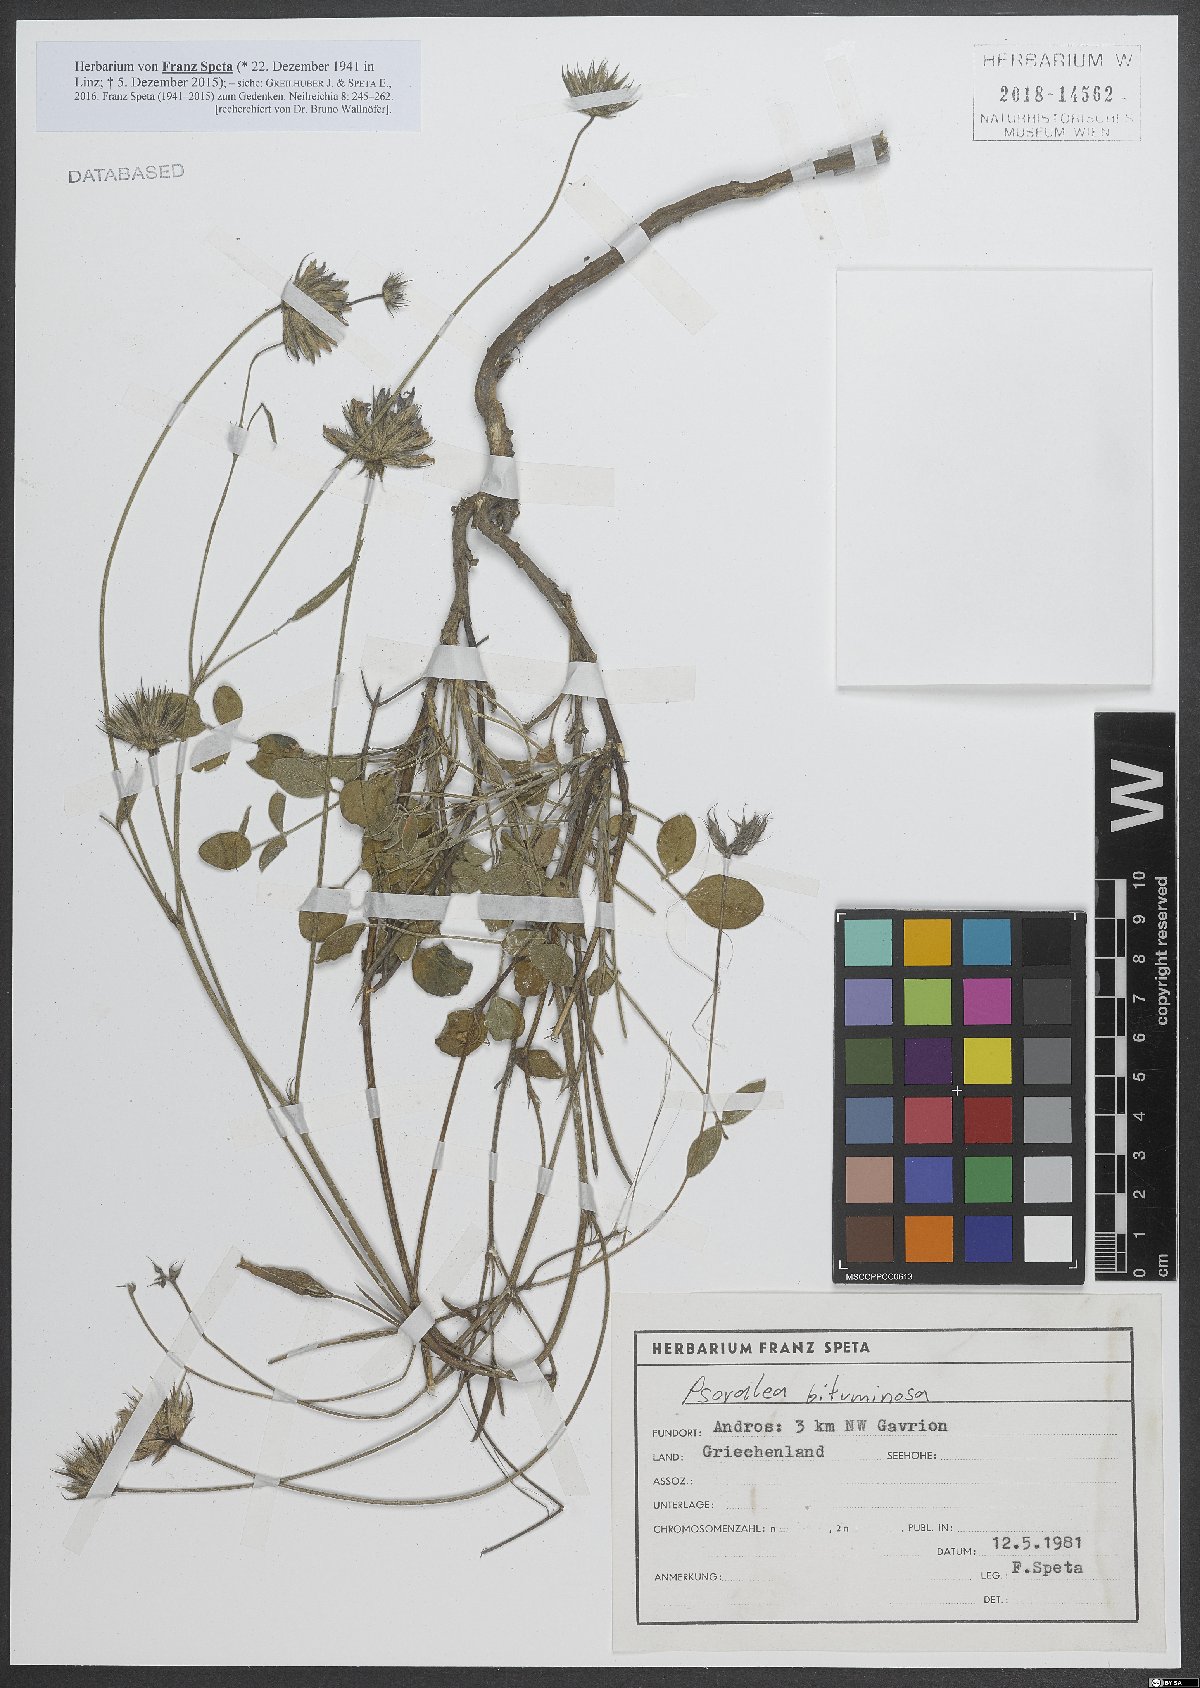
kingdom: Plantae
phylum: Tracheophyta
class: Magnoliopsida
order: Fabales
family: Fabaceae
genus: Bituminaria
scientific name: Bituminaria bituminosa
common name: Arabian pea
